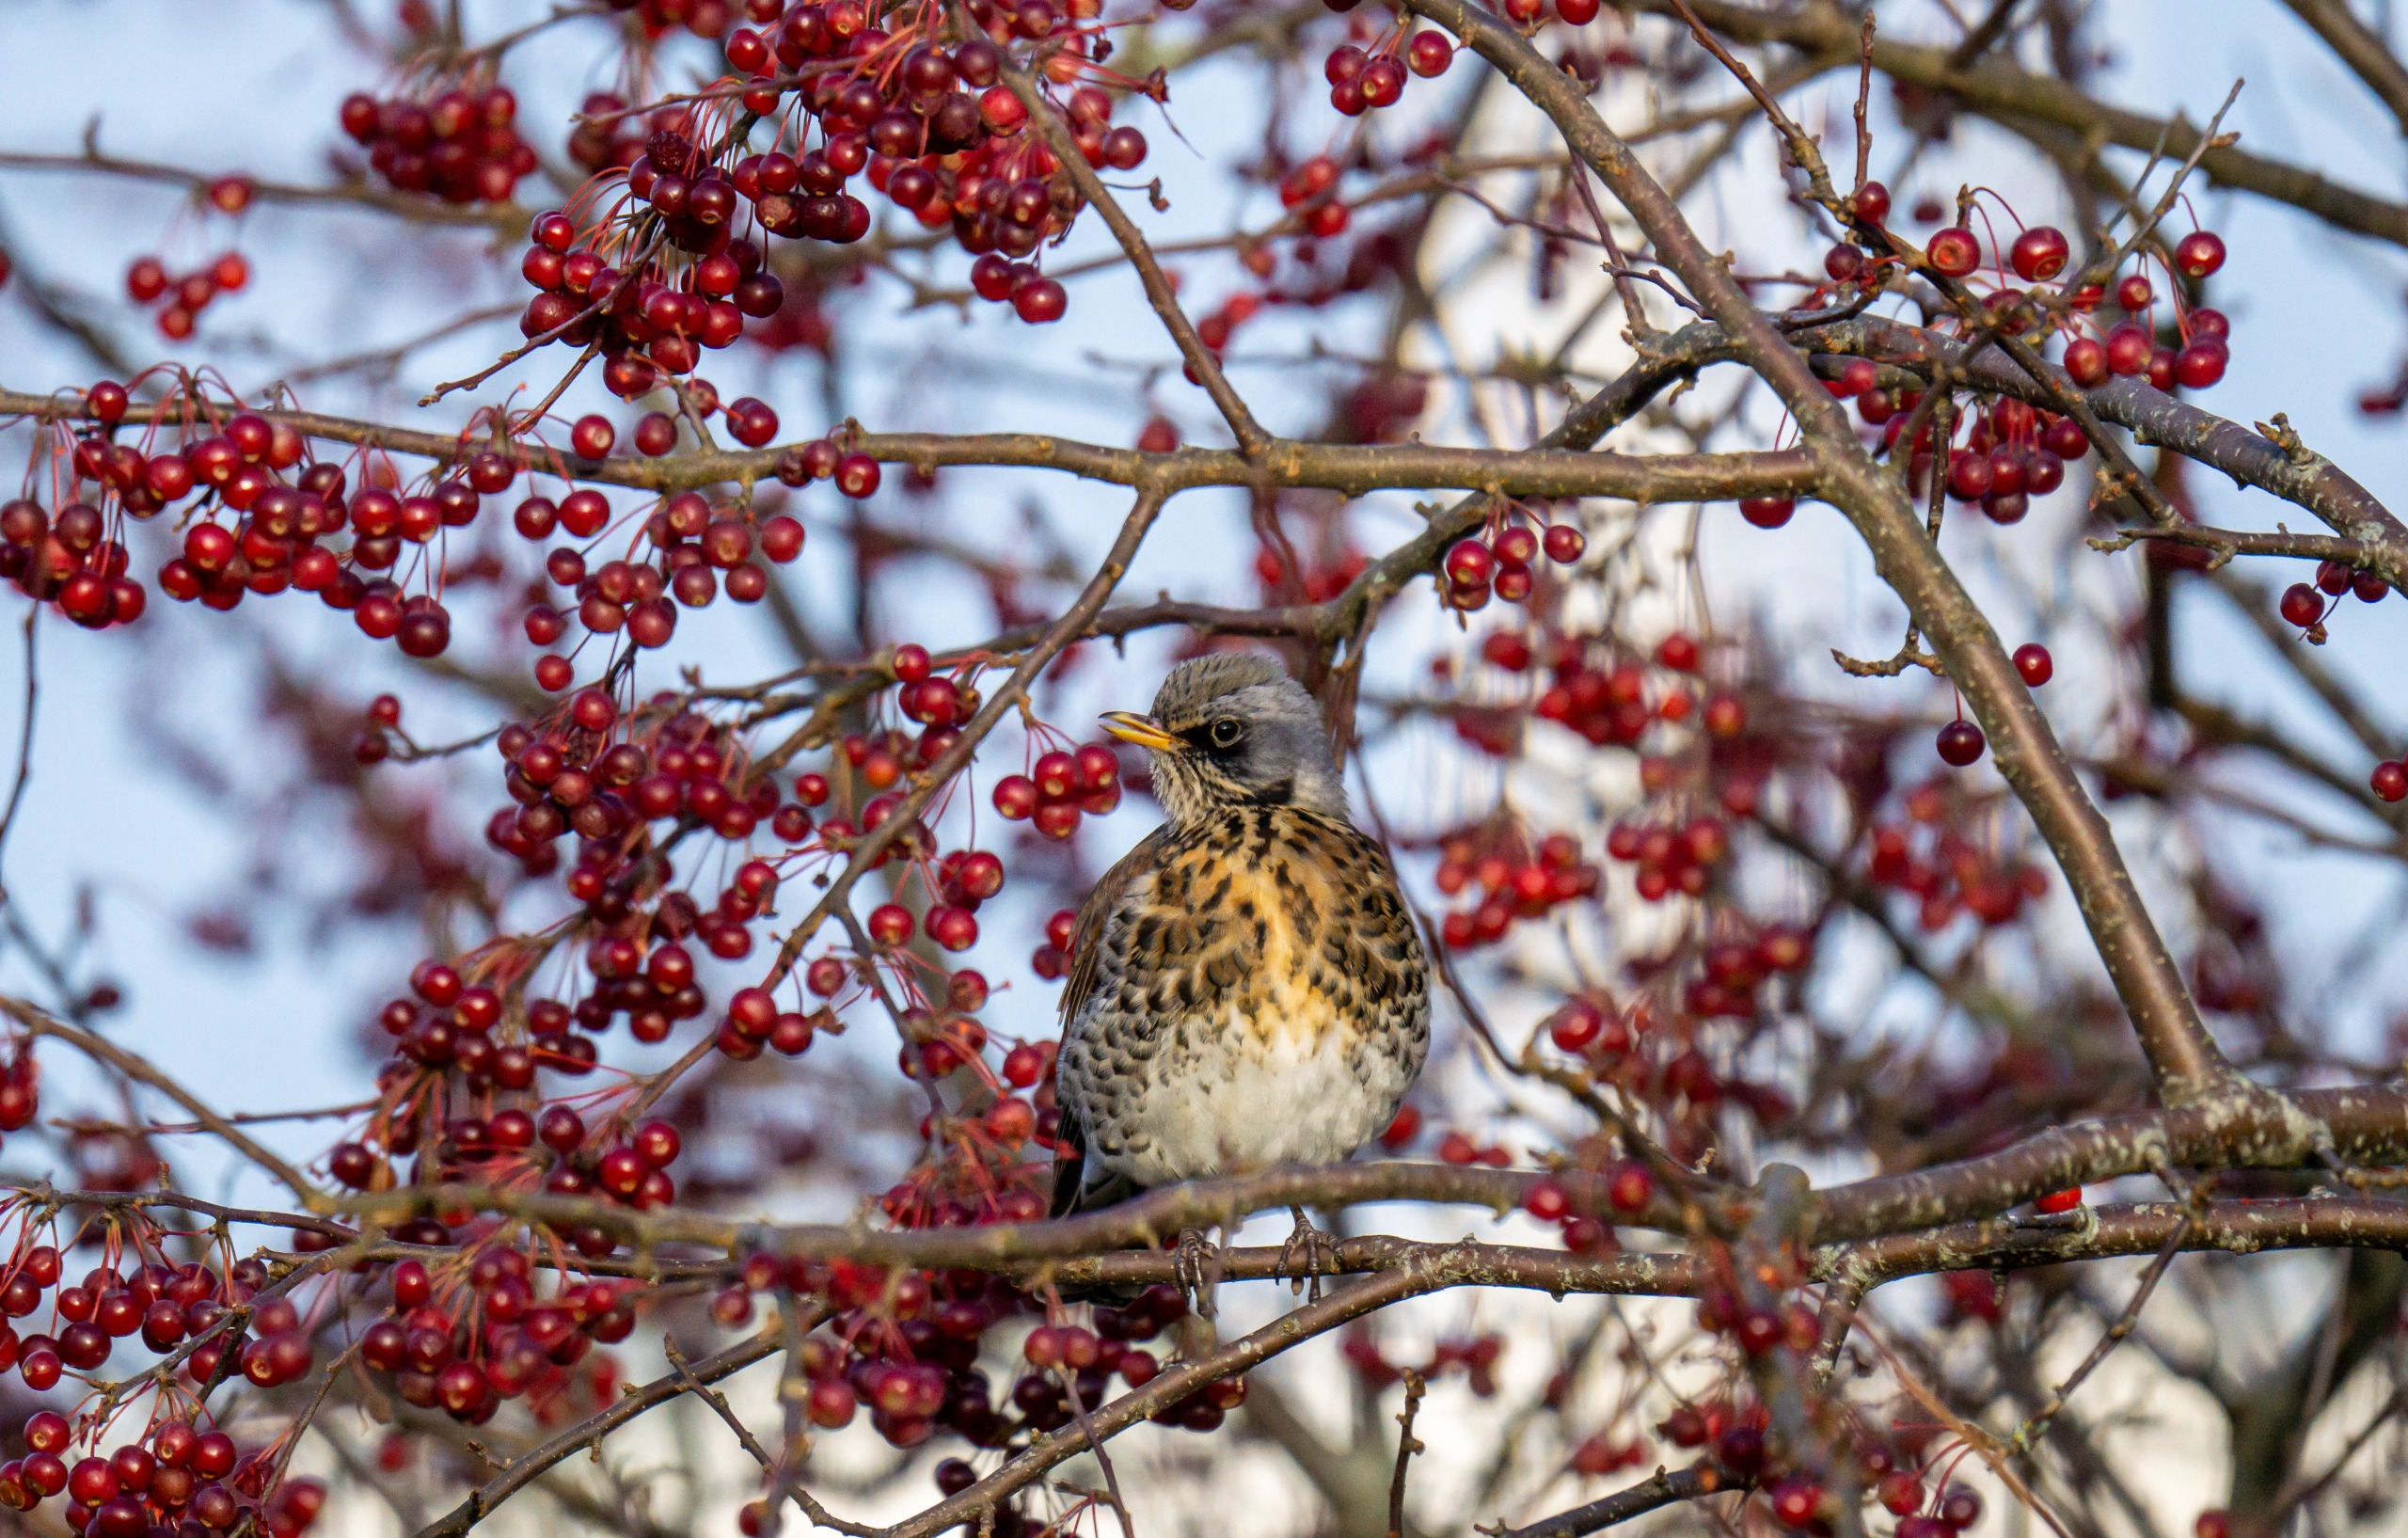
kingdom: Animalia
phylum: Chordata
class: Aves
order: Passeriformes
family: Turdidae
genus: Turdus
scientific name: Turdus pilaris
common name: Sjagger
